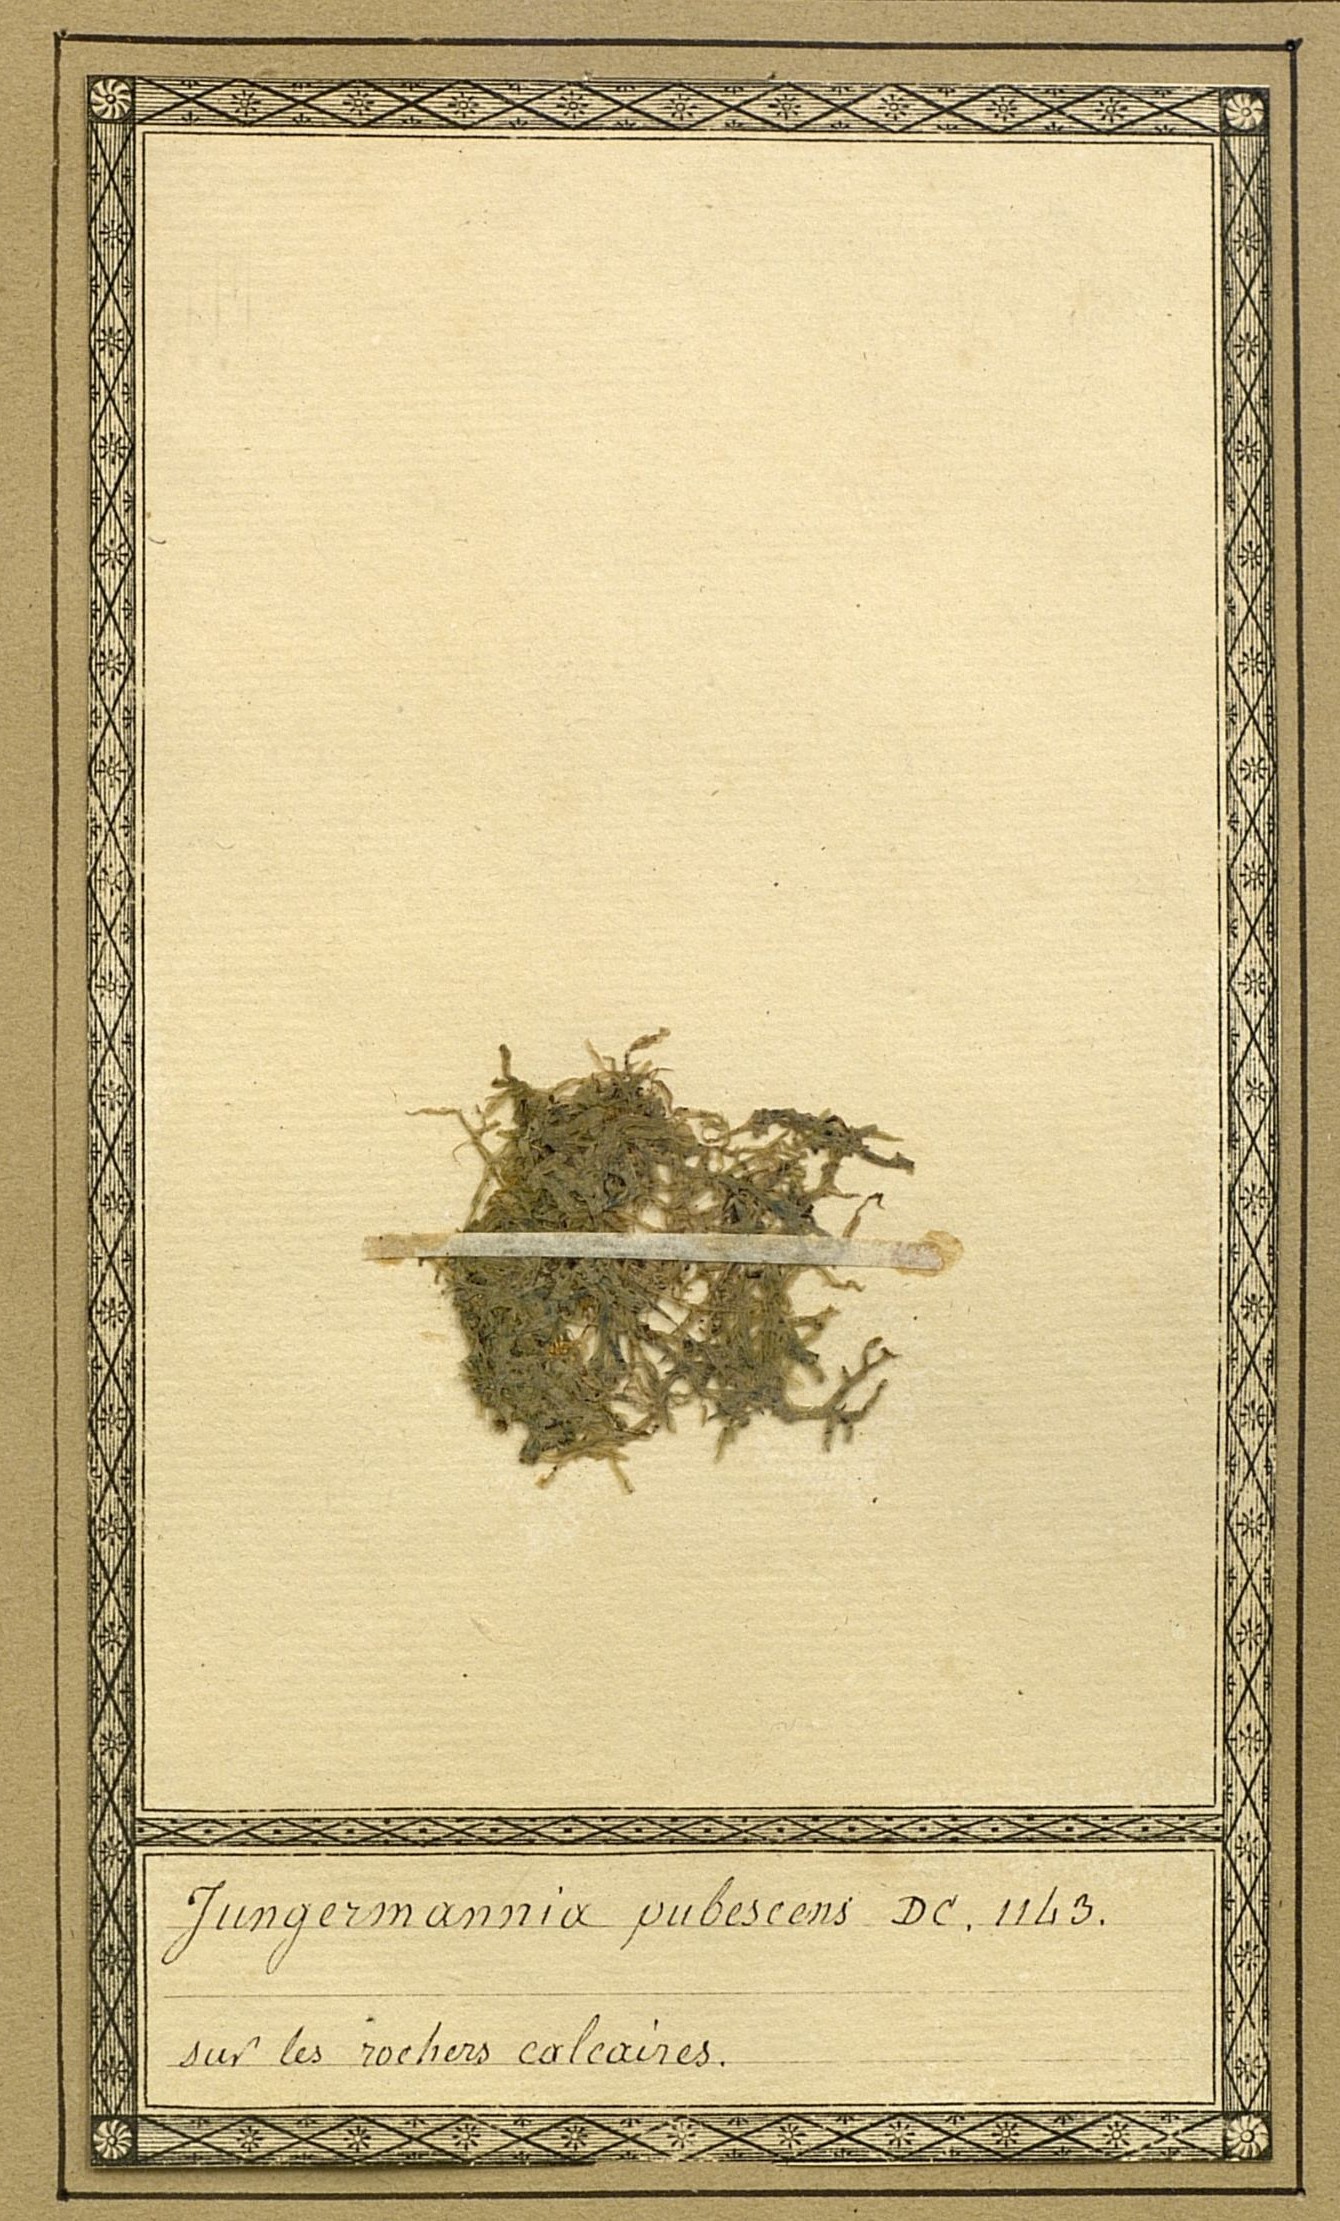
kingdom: Plantae
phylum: Marchantiophyta
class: Jungermanniopsida
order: Metzgeriales
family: Metzgeriaceae
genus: Metzgeria
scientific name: Metzgeria pubescens
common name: Downy veilwort
